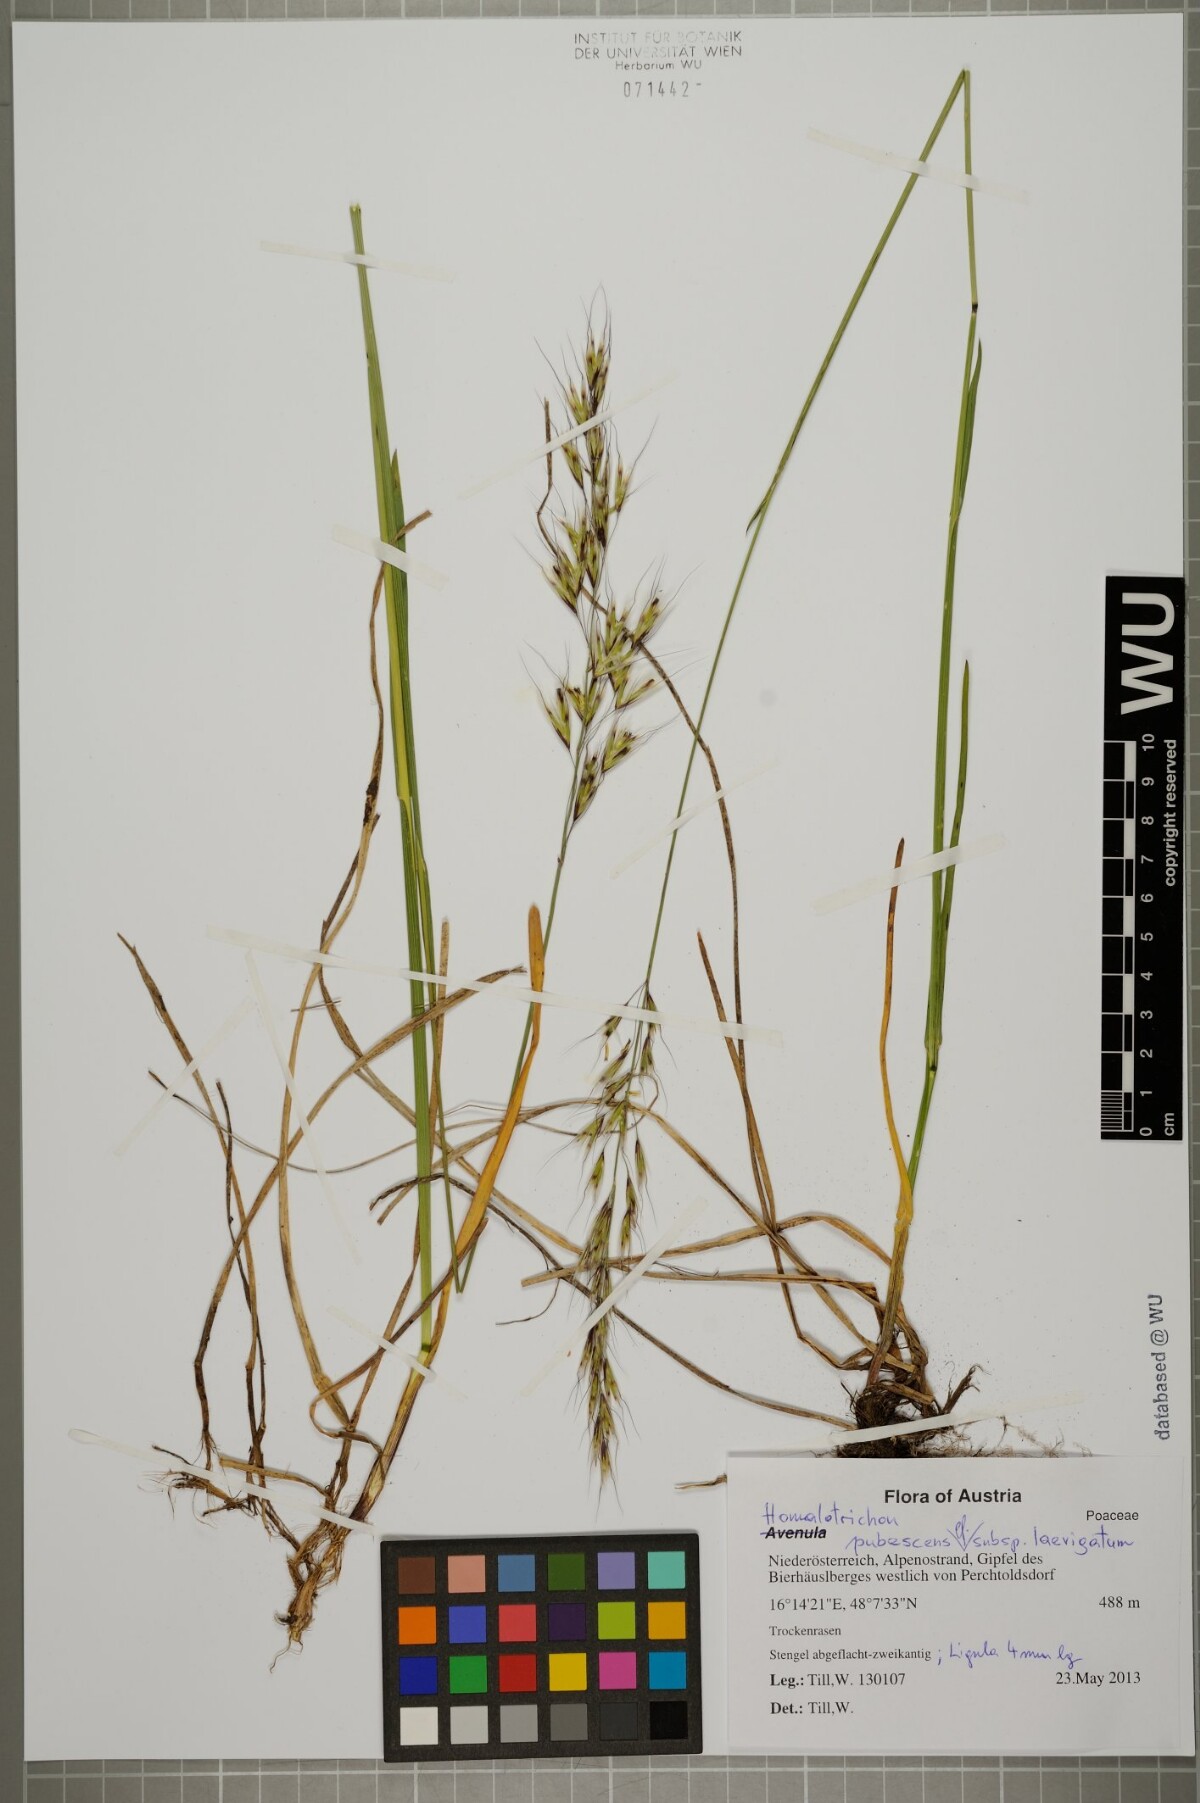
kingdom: Plantae
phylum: Tracheophyta
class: Liliopsida
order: Poales
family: Poaceae
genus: Avenula
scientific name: Avenula pubescens
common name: Downy alpine oatgrass
